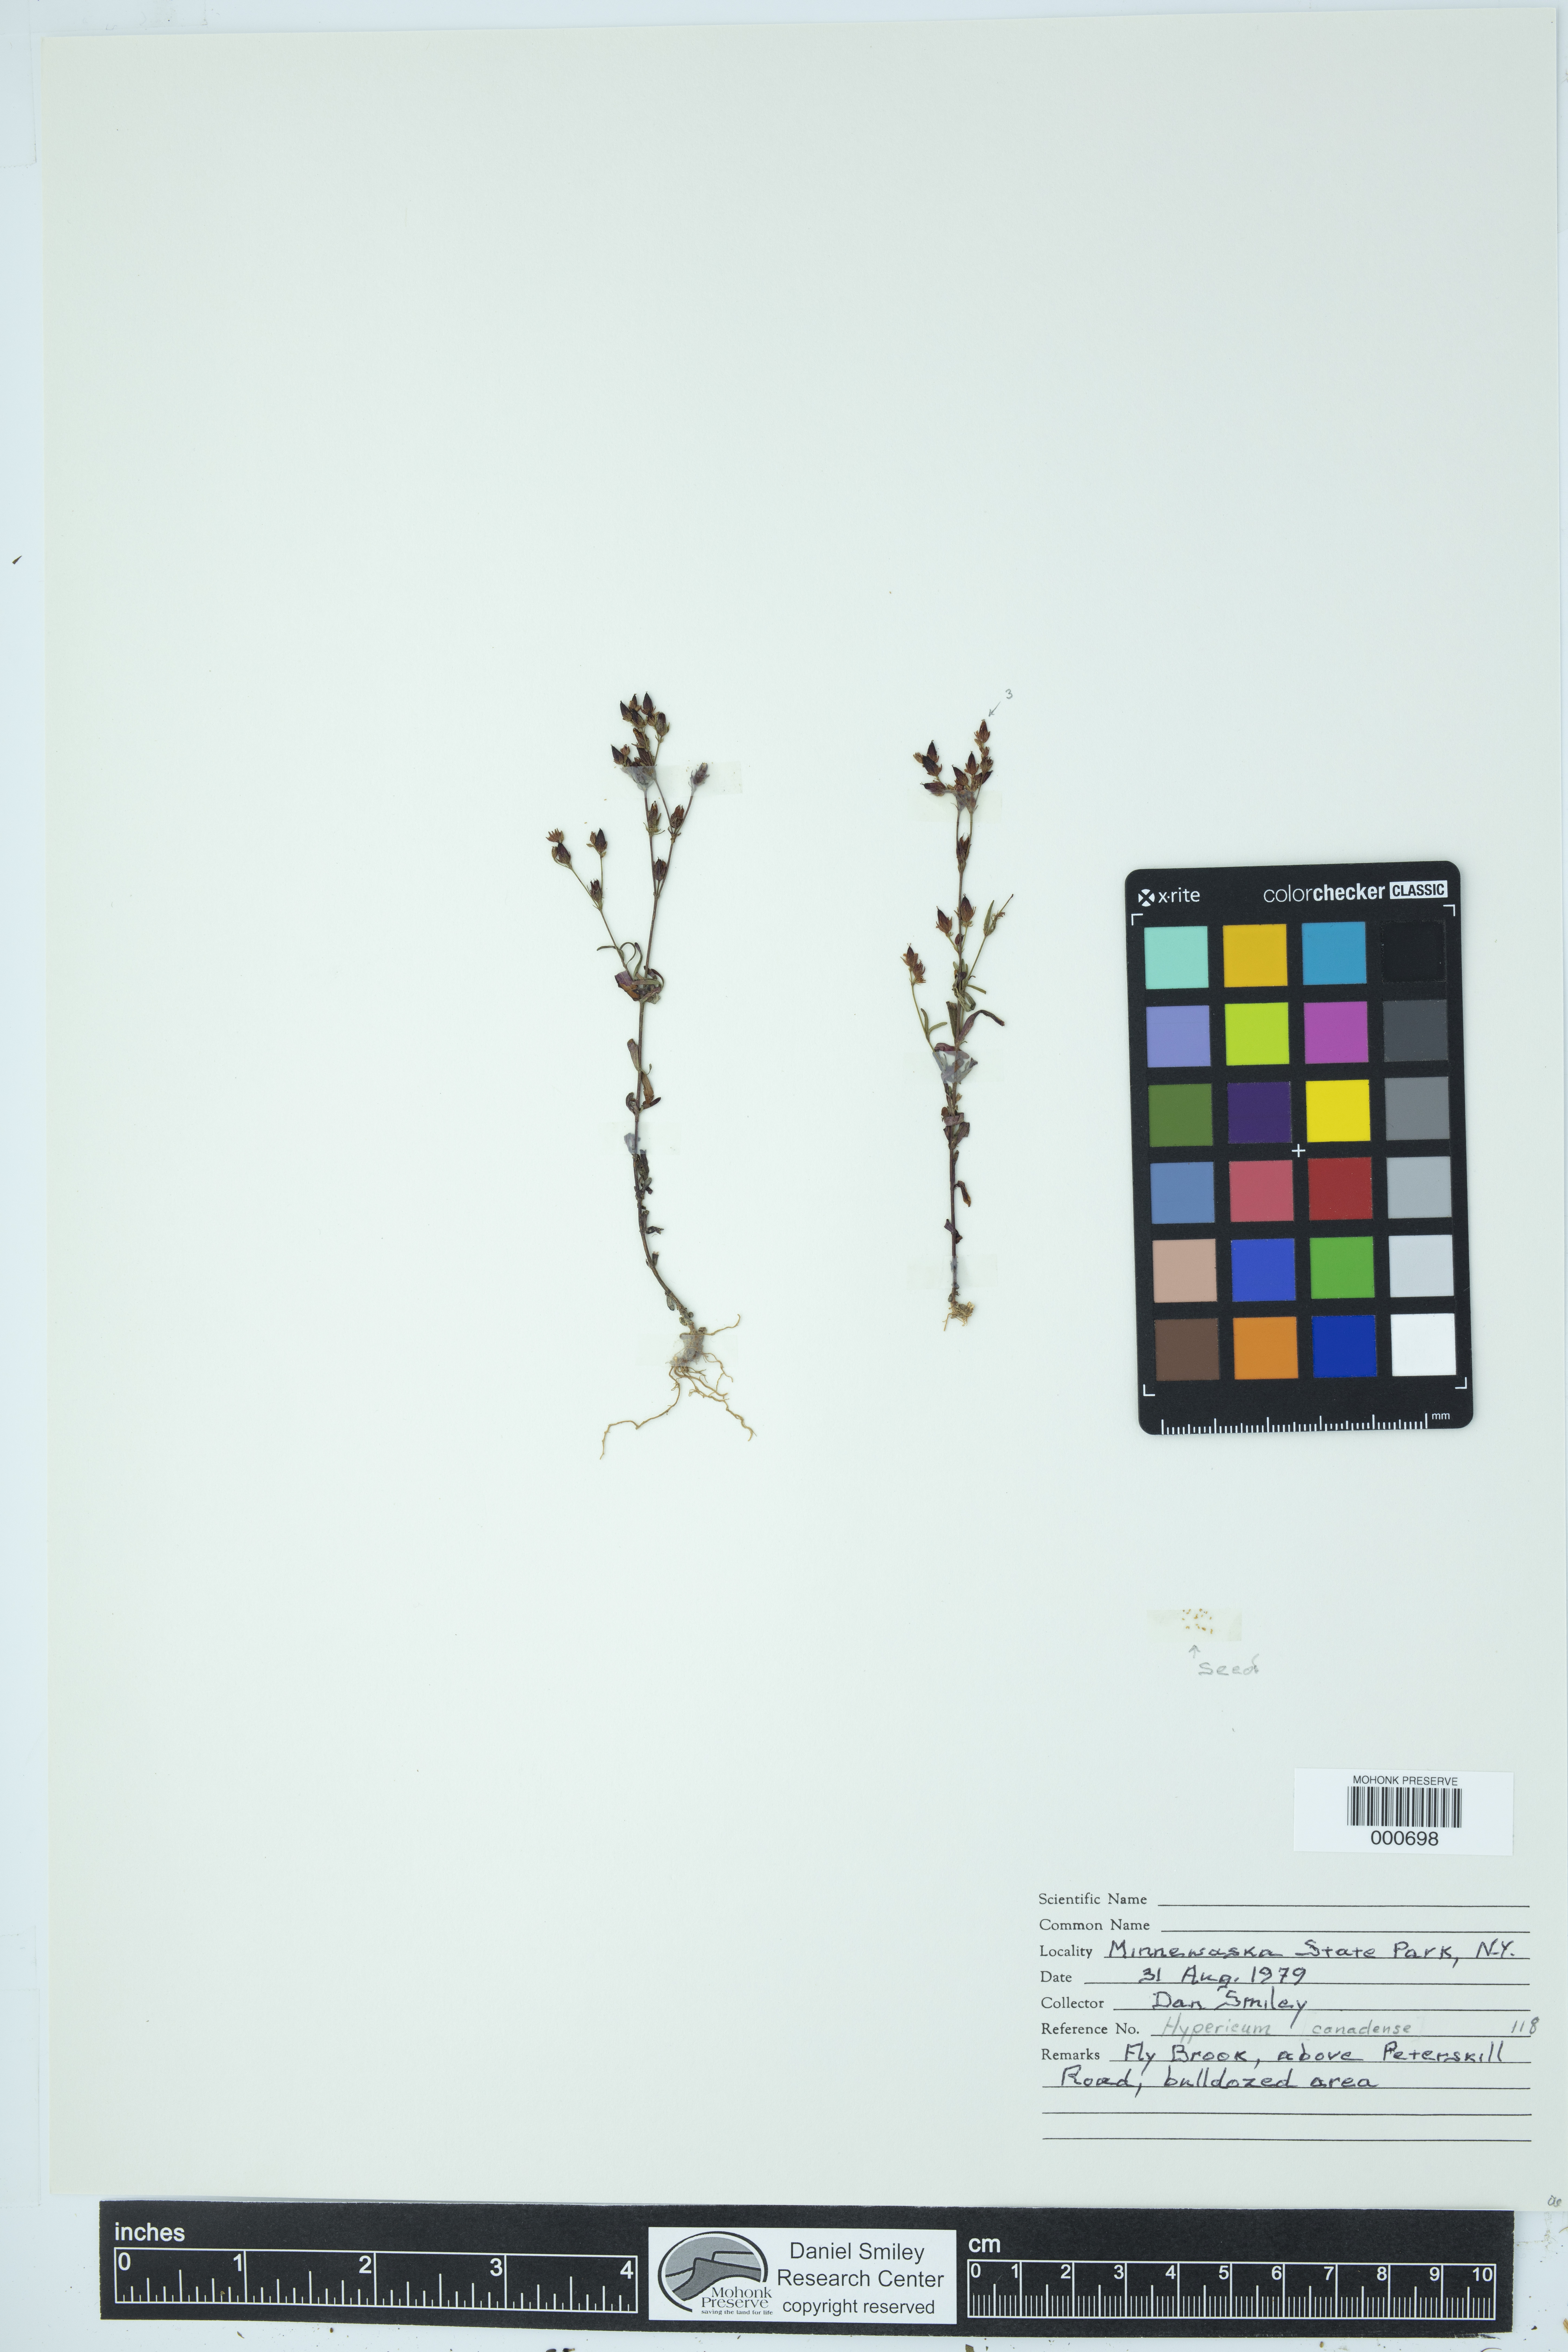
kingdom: Plantae
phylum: Tracheophyta
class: Magnoliopsida
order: Malpighiales
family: Hypericaceae
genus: Hypericum
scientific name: Hypericum canadense
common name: Irish st. john's-wort
